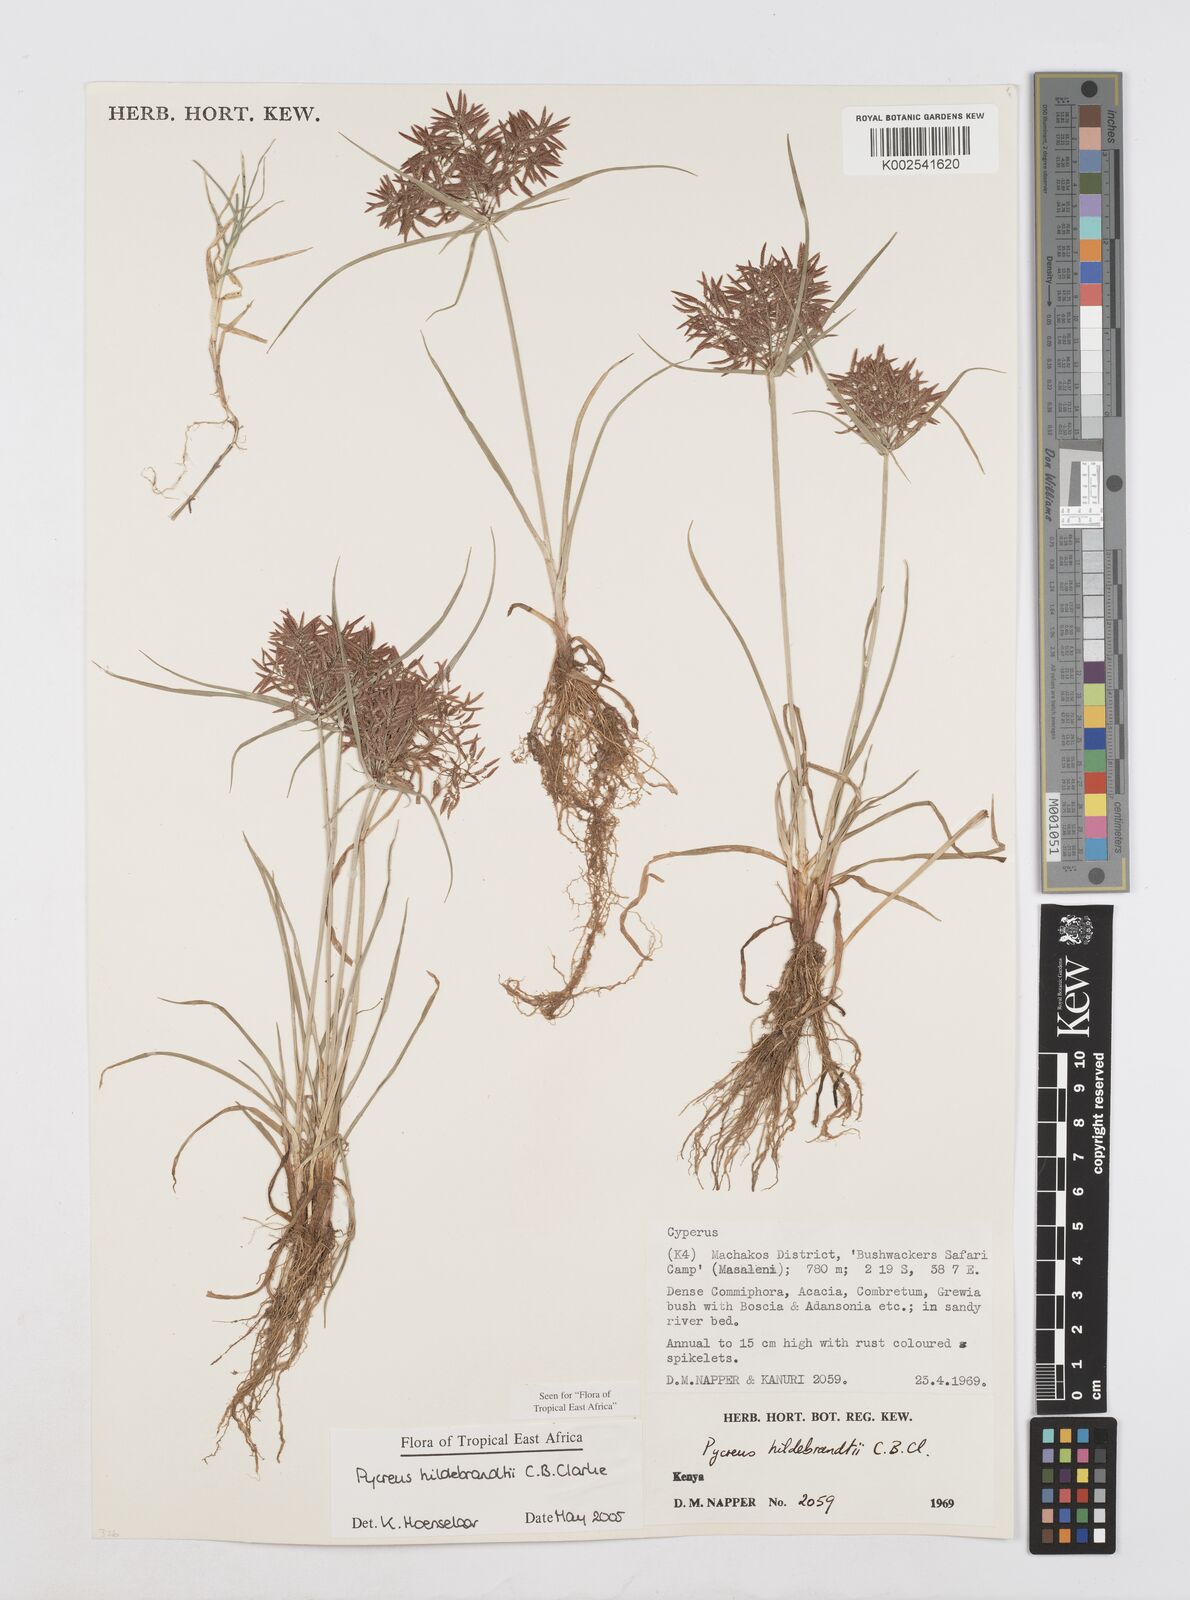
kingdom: Plantae
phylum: Tracheophyta
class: Liliopsida
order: Poales
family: Cyperaceae
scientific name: Cyperaceae
